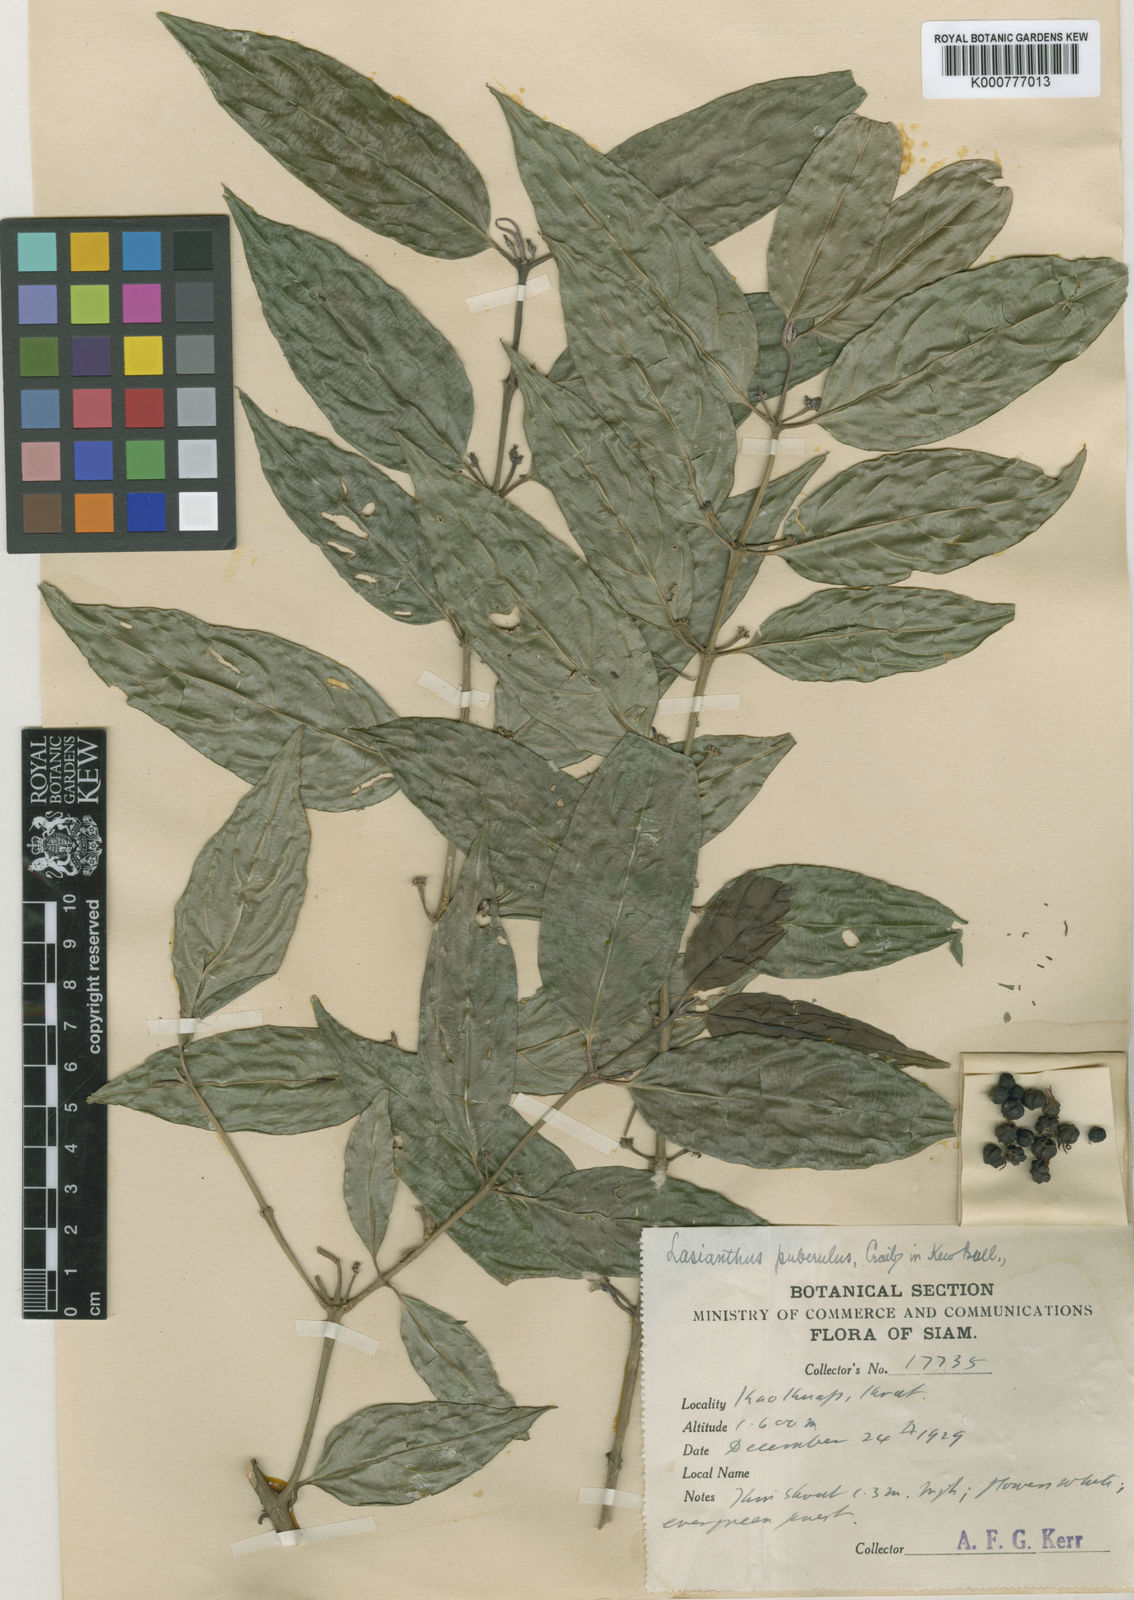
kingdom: Plantae
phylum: Tracheophyta
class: Magnoliopsida
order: Gentianales
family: Rubiaceae
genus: Lasianthus
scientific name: Lasianthus puberulus
